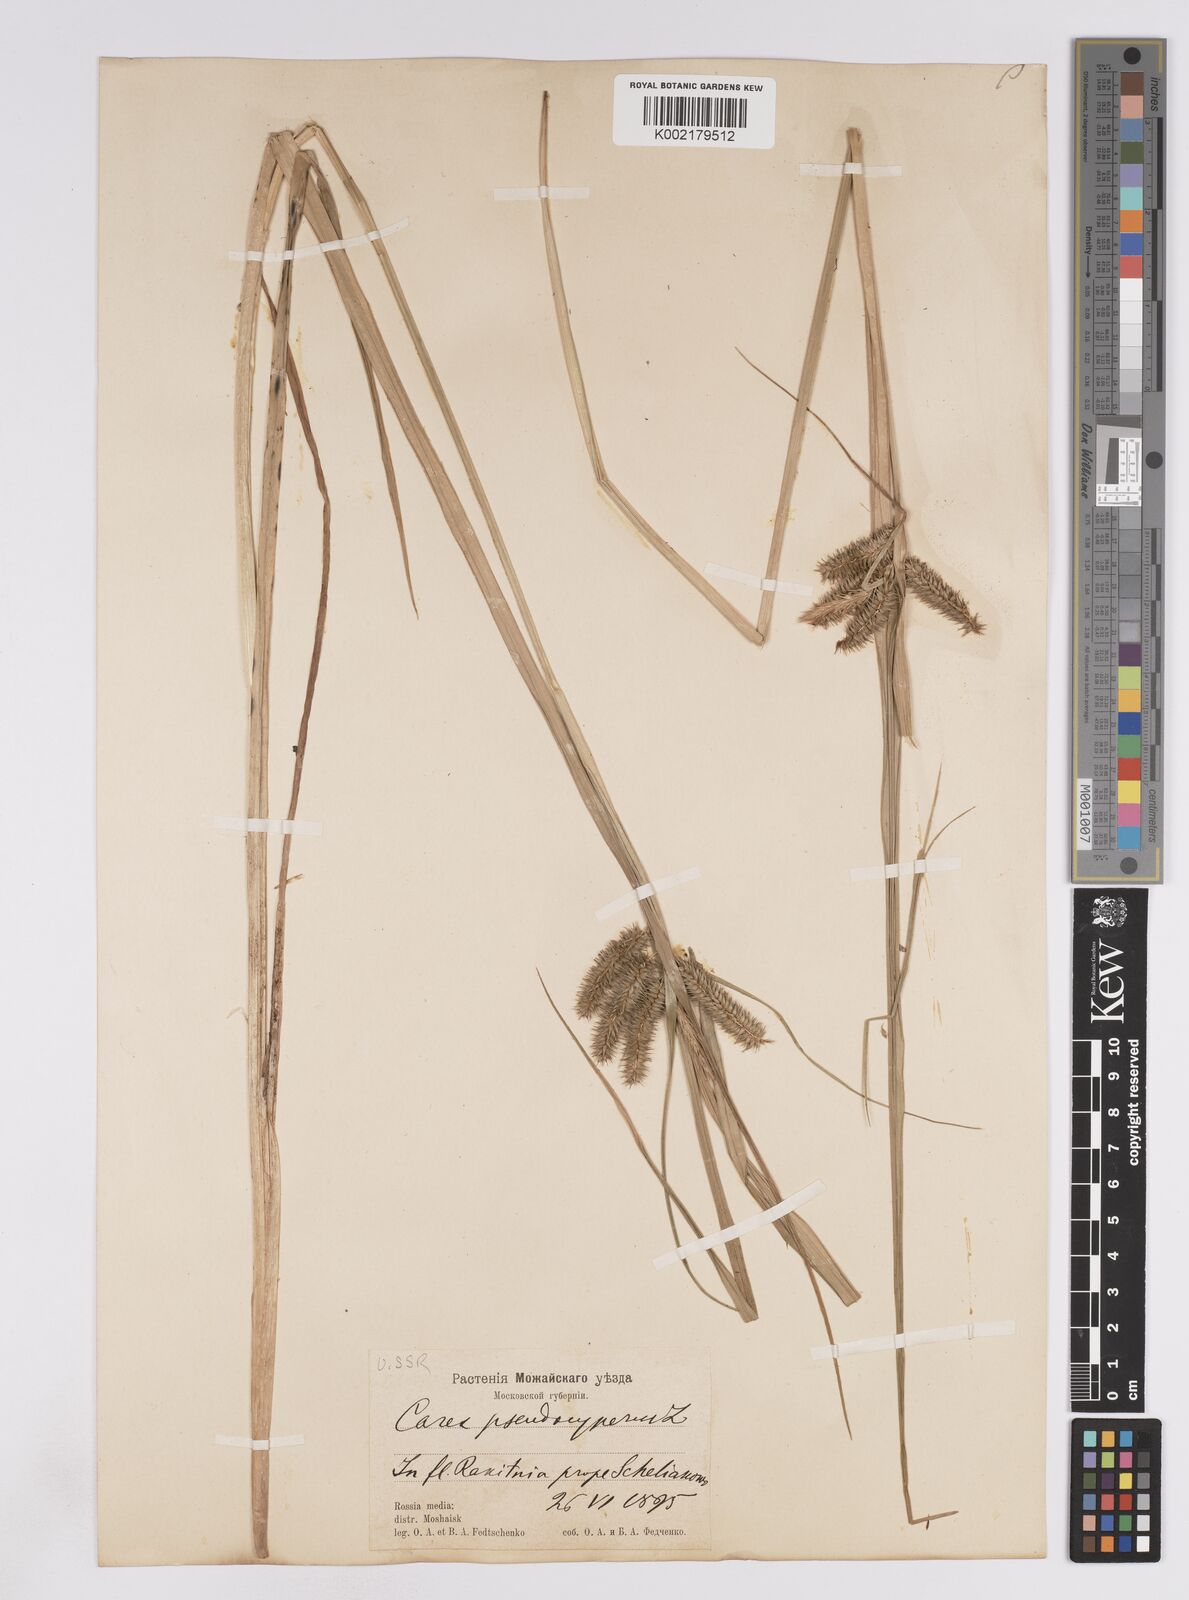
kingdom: Plantae
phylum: Tracheophyta
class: Liliopsida
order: Poales
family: Cyperaceae
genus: Carex
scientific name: Carex pseudocyperus
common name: Cyperus sedge
